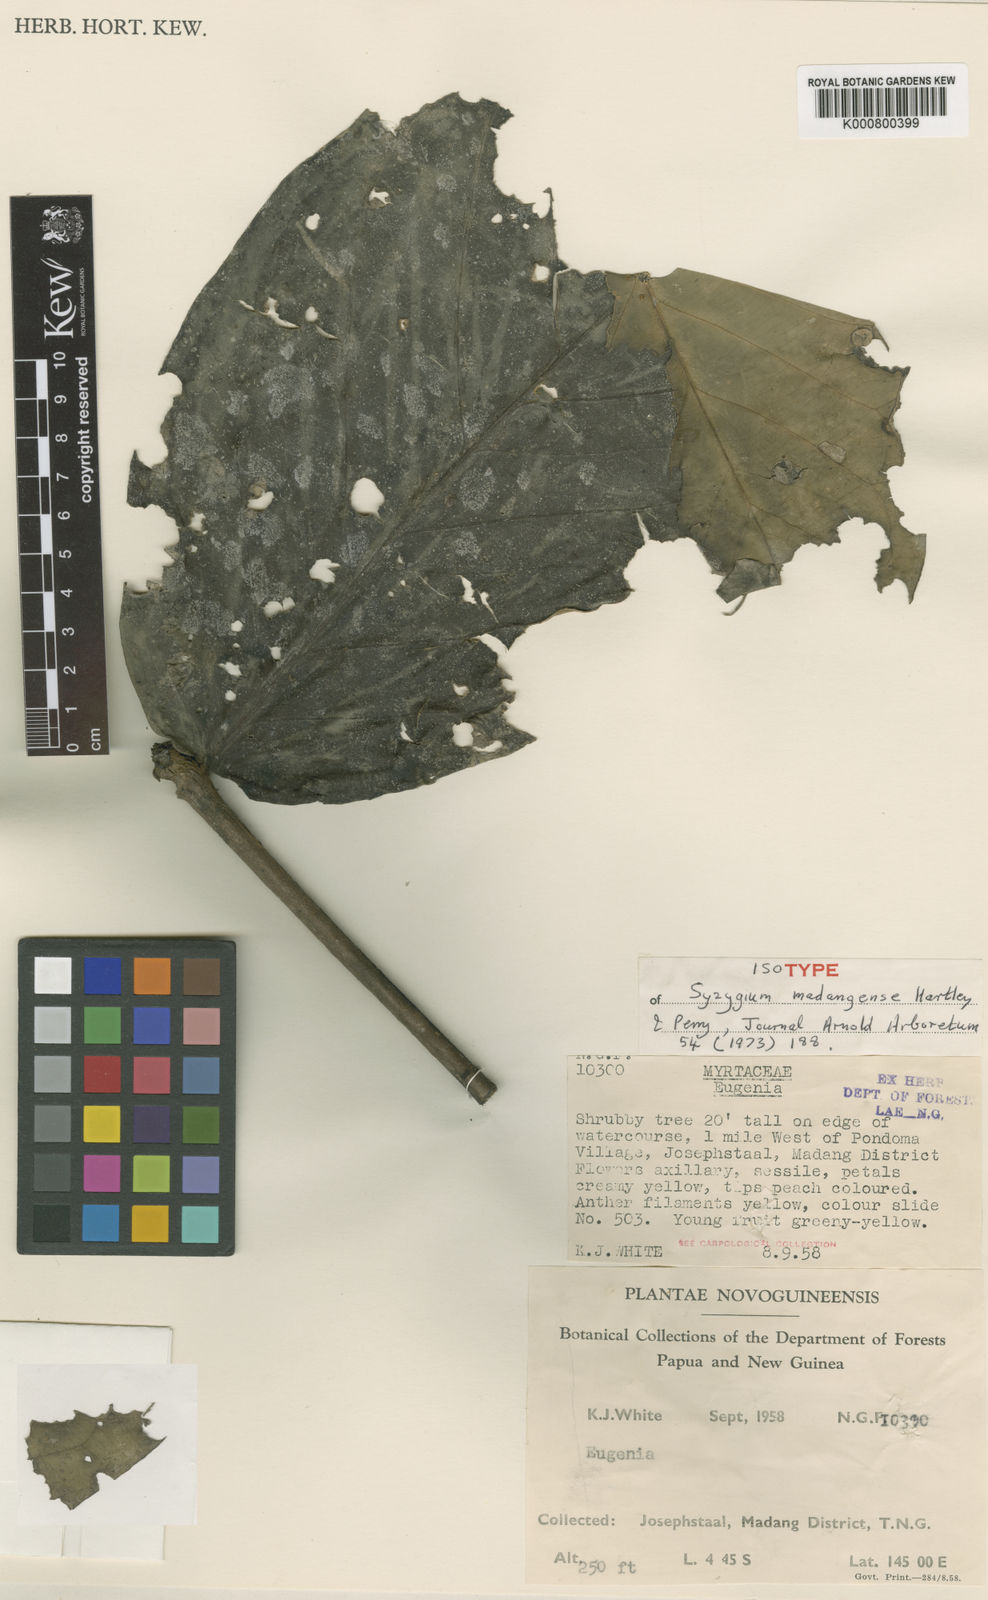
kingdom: Plantae
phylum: Tracheophyta
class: Magnoliopsida
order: Myrtales
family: Myrtaceae
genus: Syzygium
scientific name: Syzygium madangense
